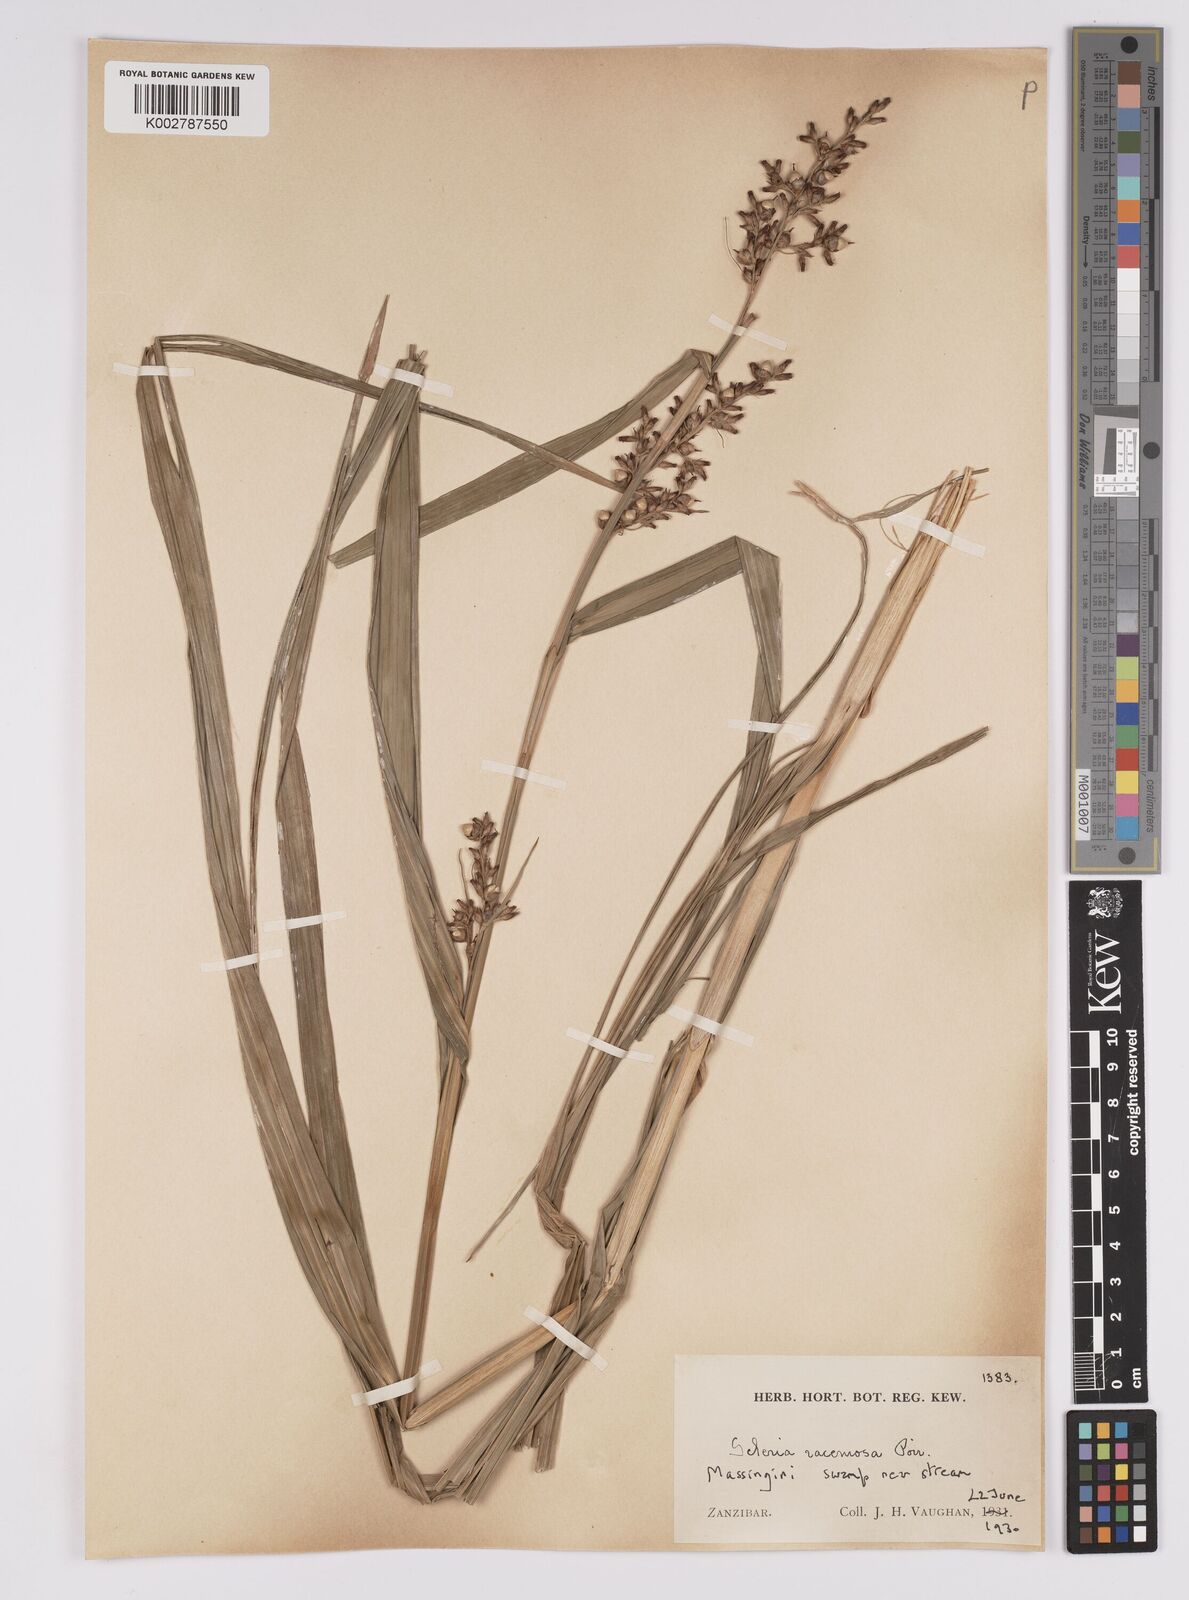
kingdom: Plantae
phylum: Tracheophyta
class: Liliopsida
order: Poales
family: Cyperaceae
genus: Scleria
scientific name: Scleria racemosa
